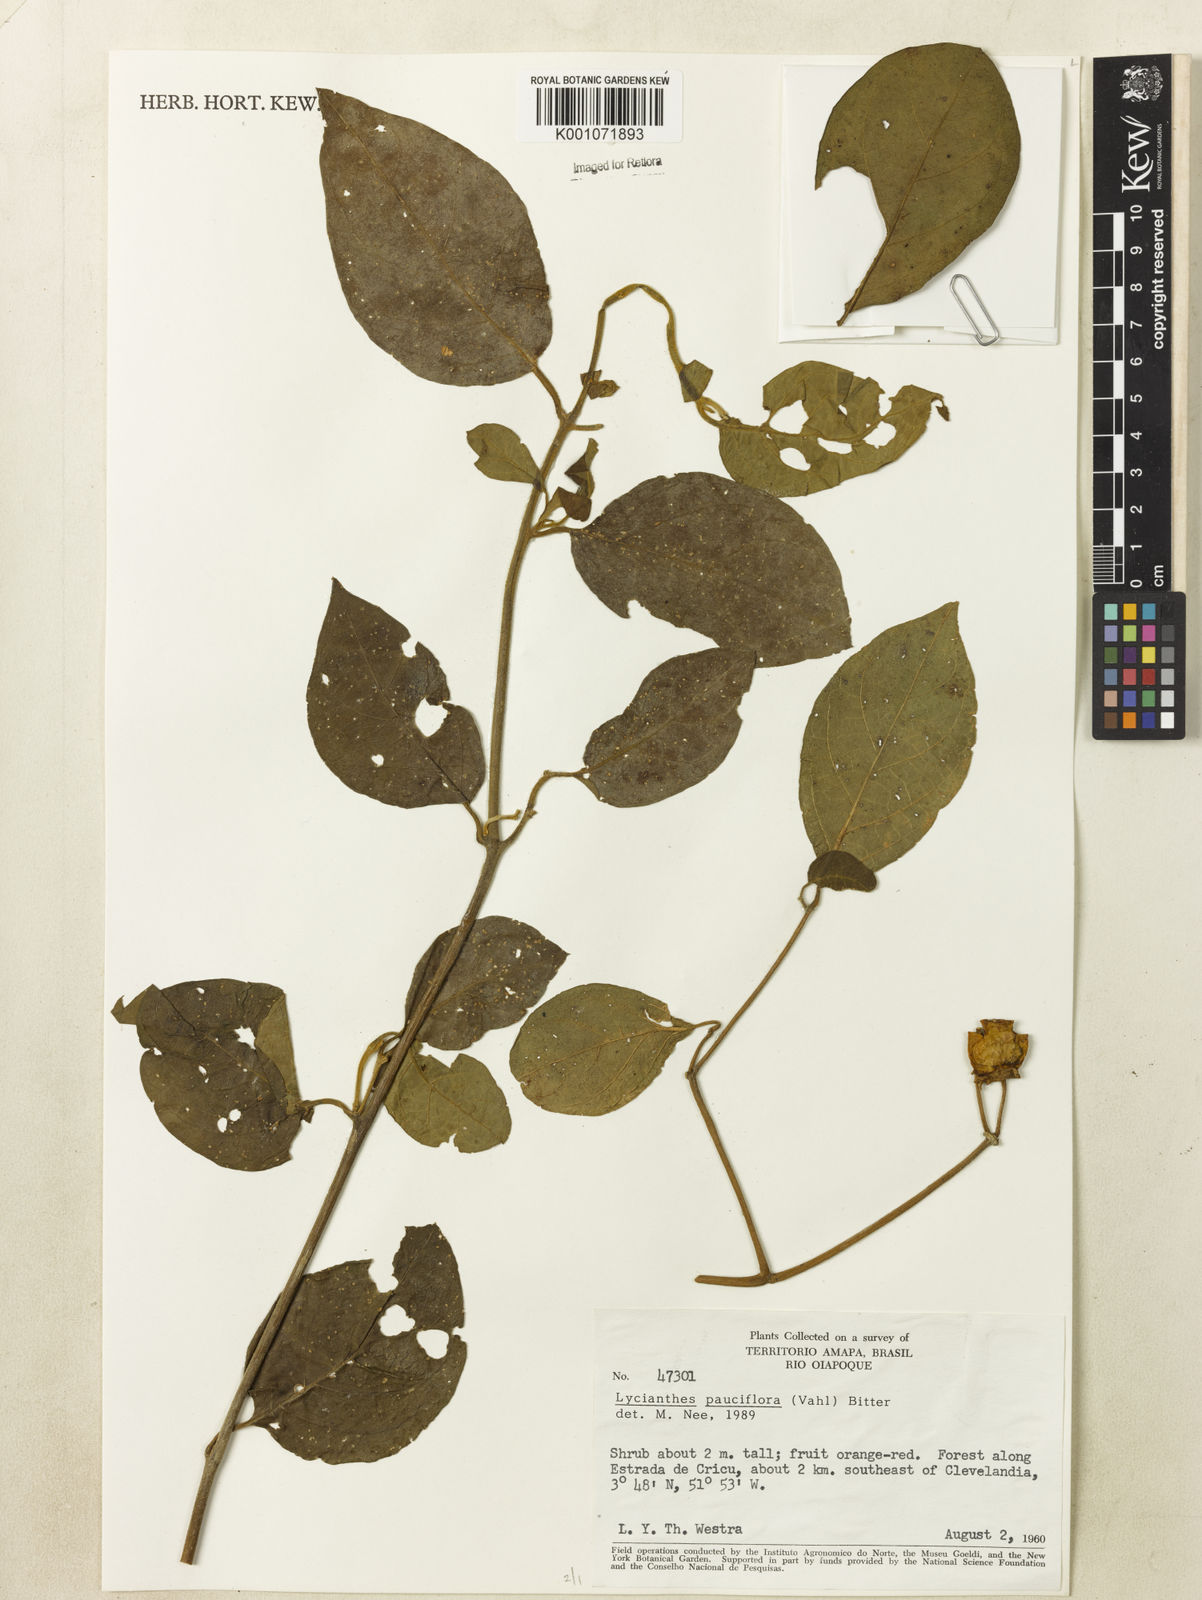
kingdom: Plantae
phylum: Tracheophyta
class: Magnoliopsida
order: Solanales
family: Solanaceae
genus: Lycianthes
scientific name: Lycianthes pauciflora
